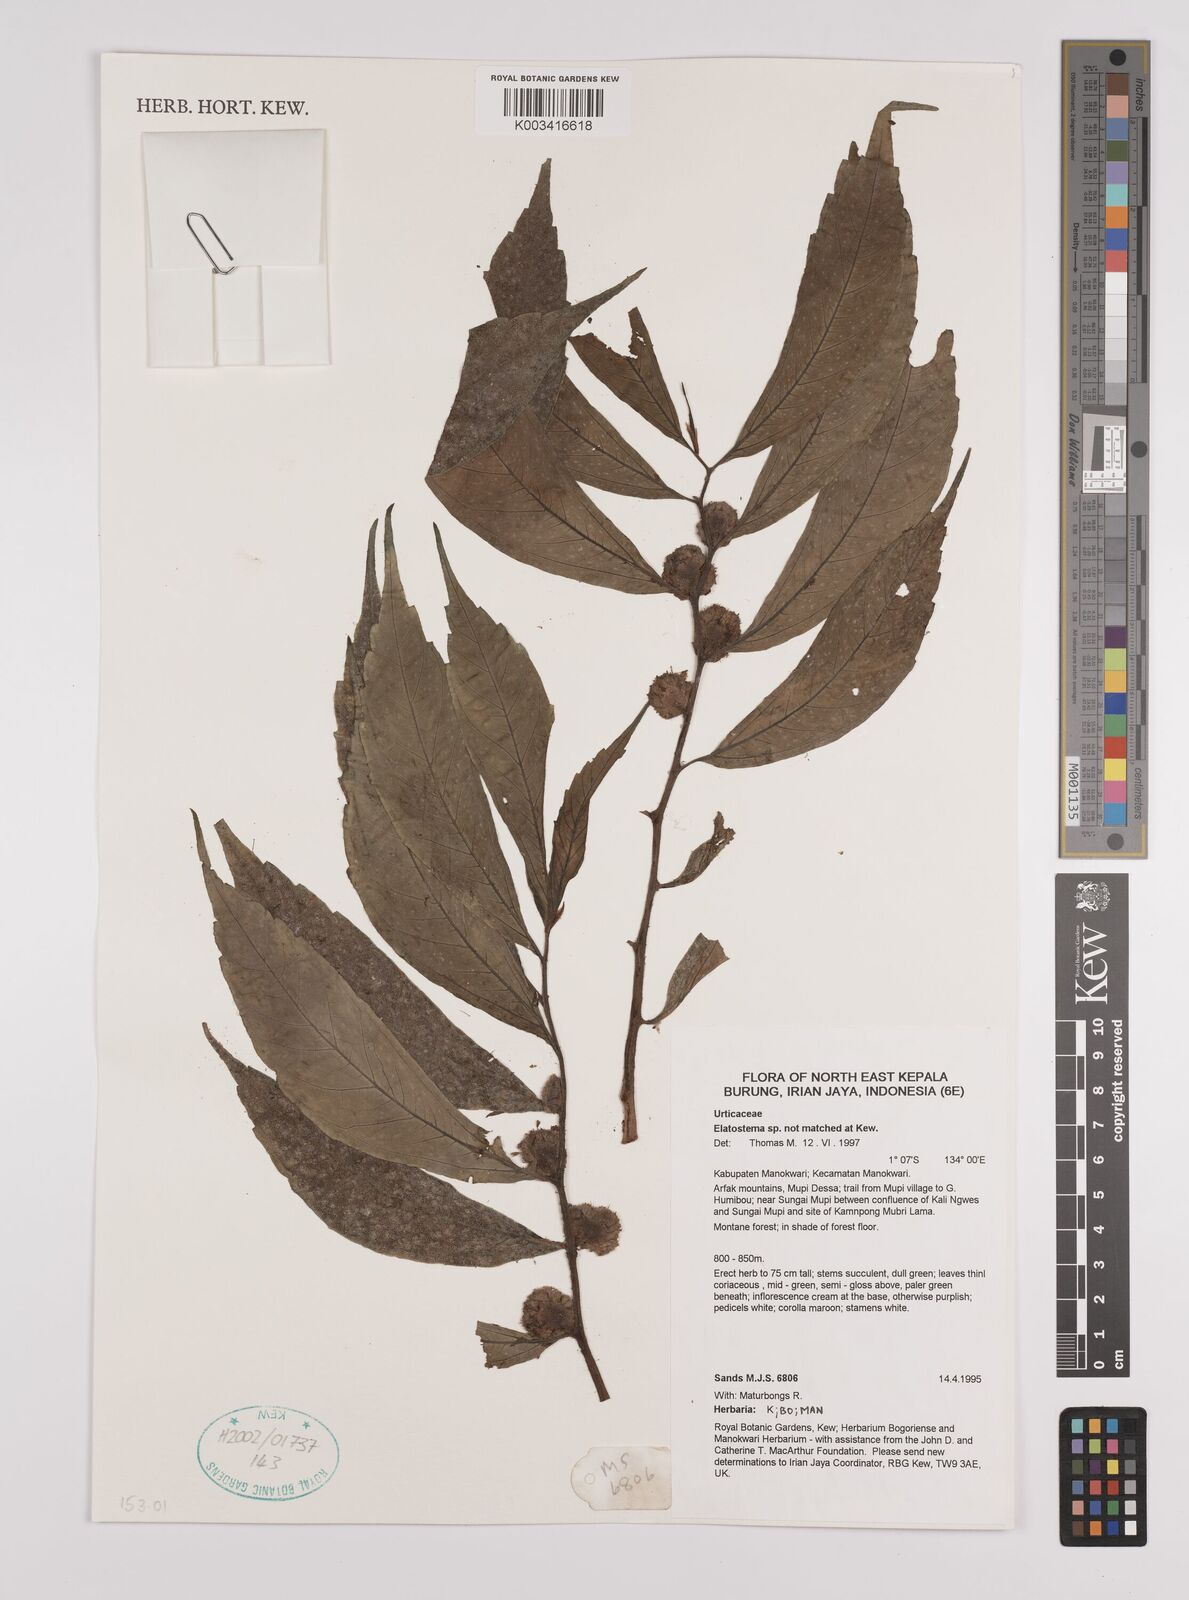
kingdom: Plantae
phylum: Tracheophyta
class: Magnoliopsida
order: Rosales
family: Urticaceae
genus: Elatostema
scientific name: Elatostema
